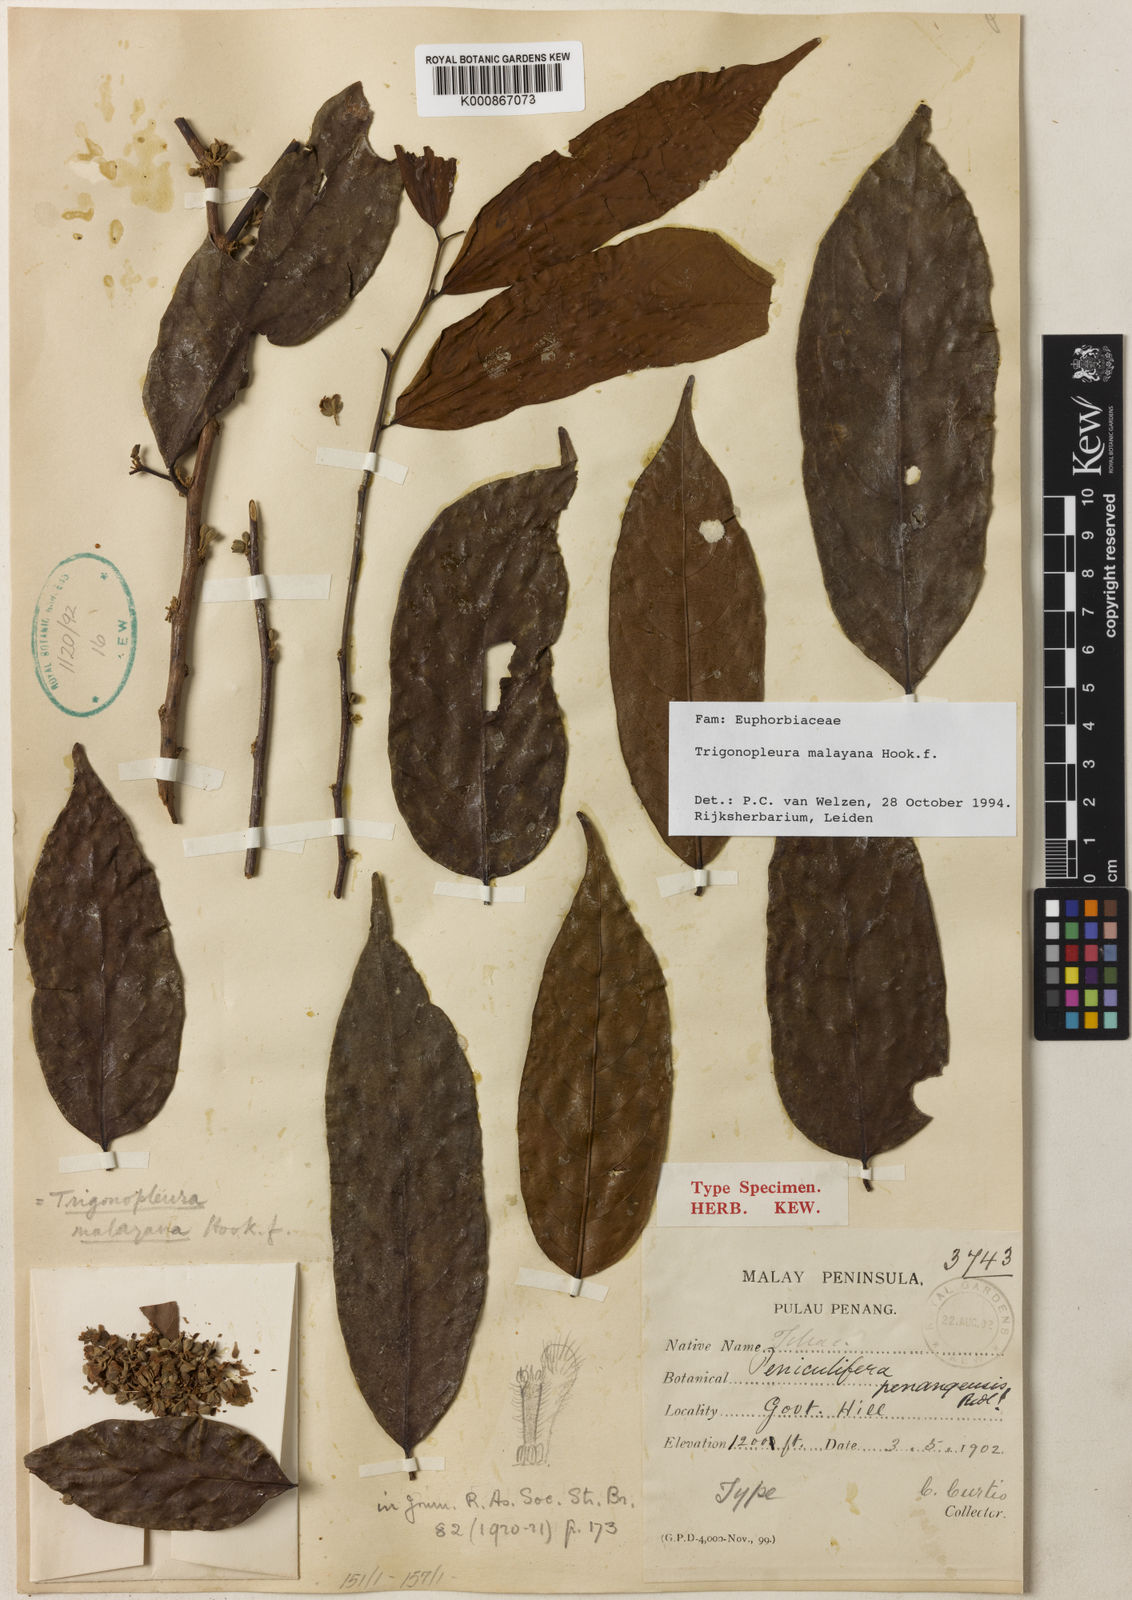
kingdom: Plantae
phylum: Tracheophyta
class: Magnoliopsida
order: Malpighiales
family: Peraceae
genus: Trigonopleura
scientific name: Trigonopleura malayana
